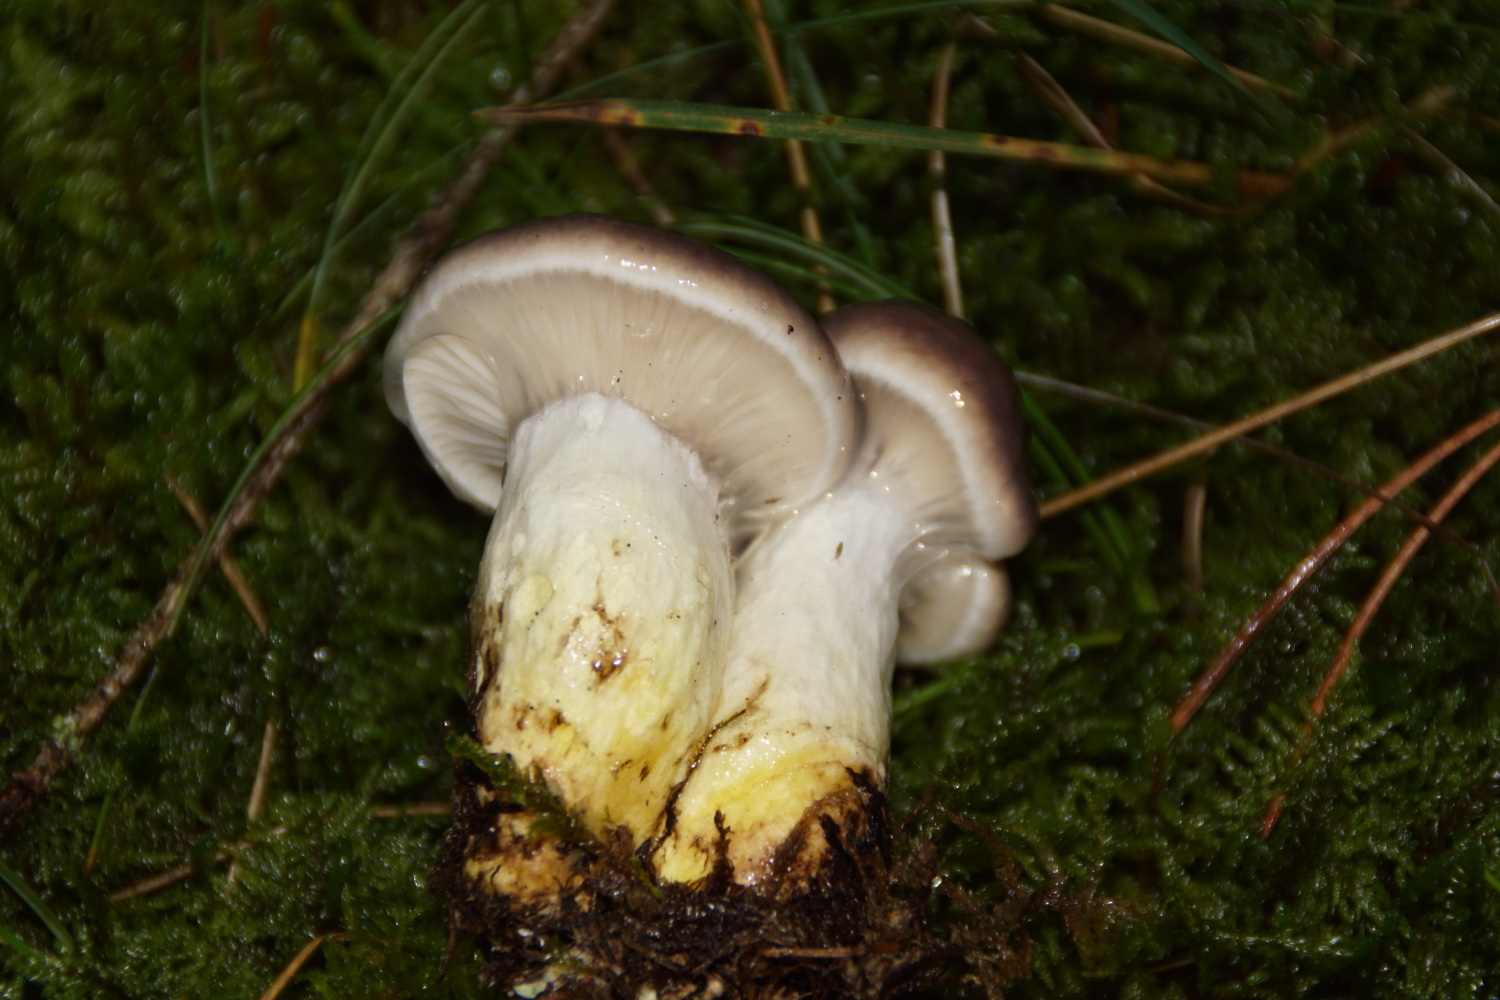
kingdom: Fungi
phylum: Basidiomycota
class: Agaricomycetes
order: Boletales
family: Gomphidiaceae
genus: Gomphidius
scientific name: Gomphidius glutinosus
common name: grå slimslør
